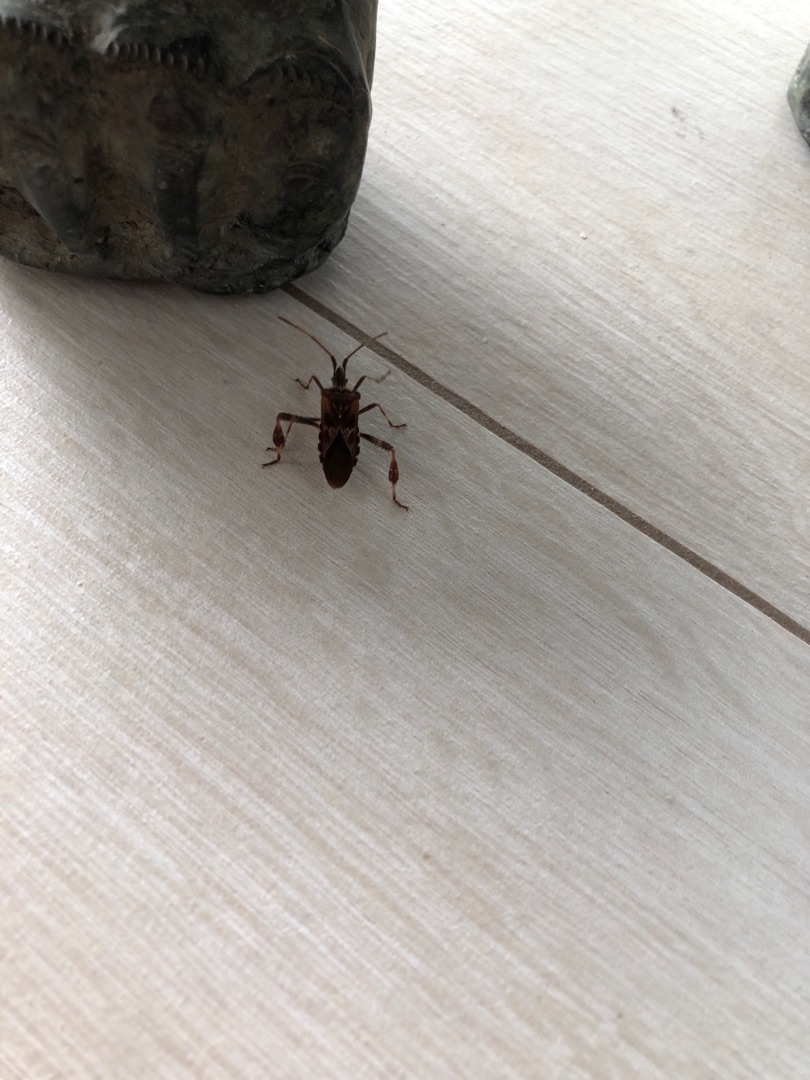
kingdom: Animalia
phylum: Arthropoda
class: Insecta
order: Hemiptera
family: Coreidae
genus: Leptoglossus
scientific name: Leptoglossus occidentalis
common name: Amerikansk fyrretæge
